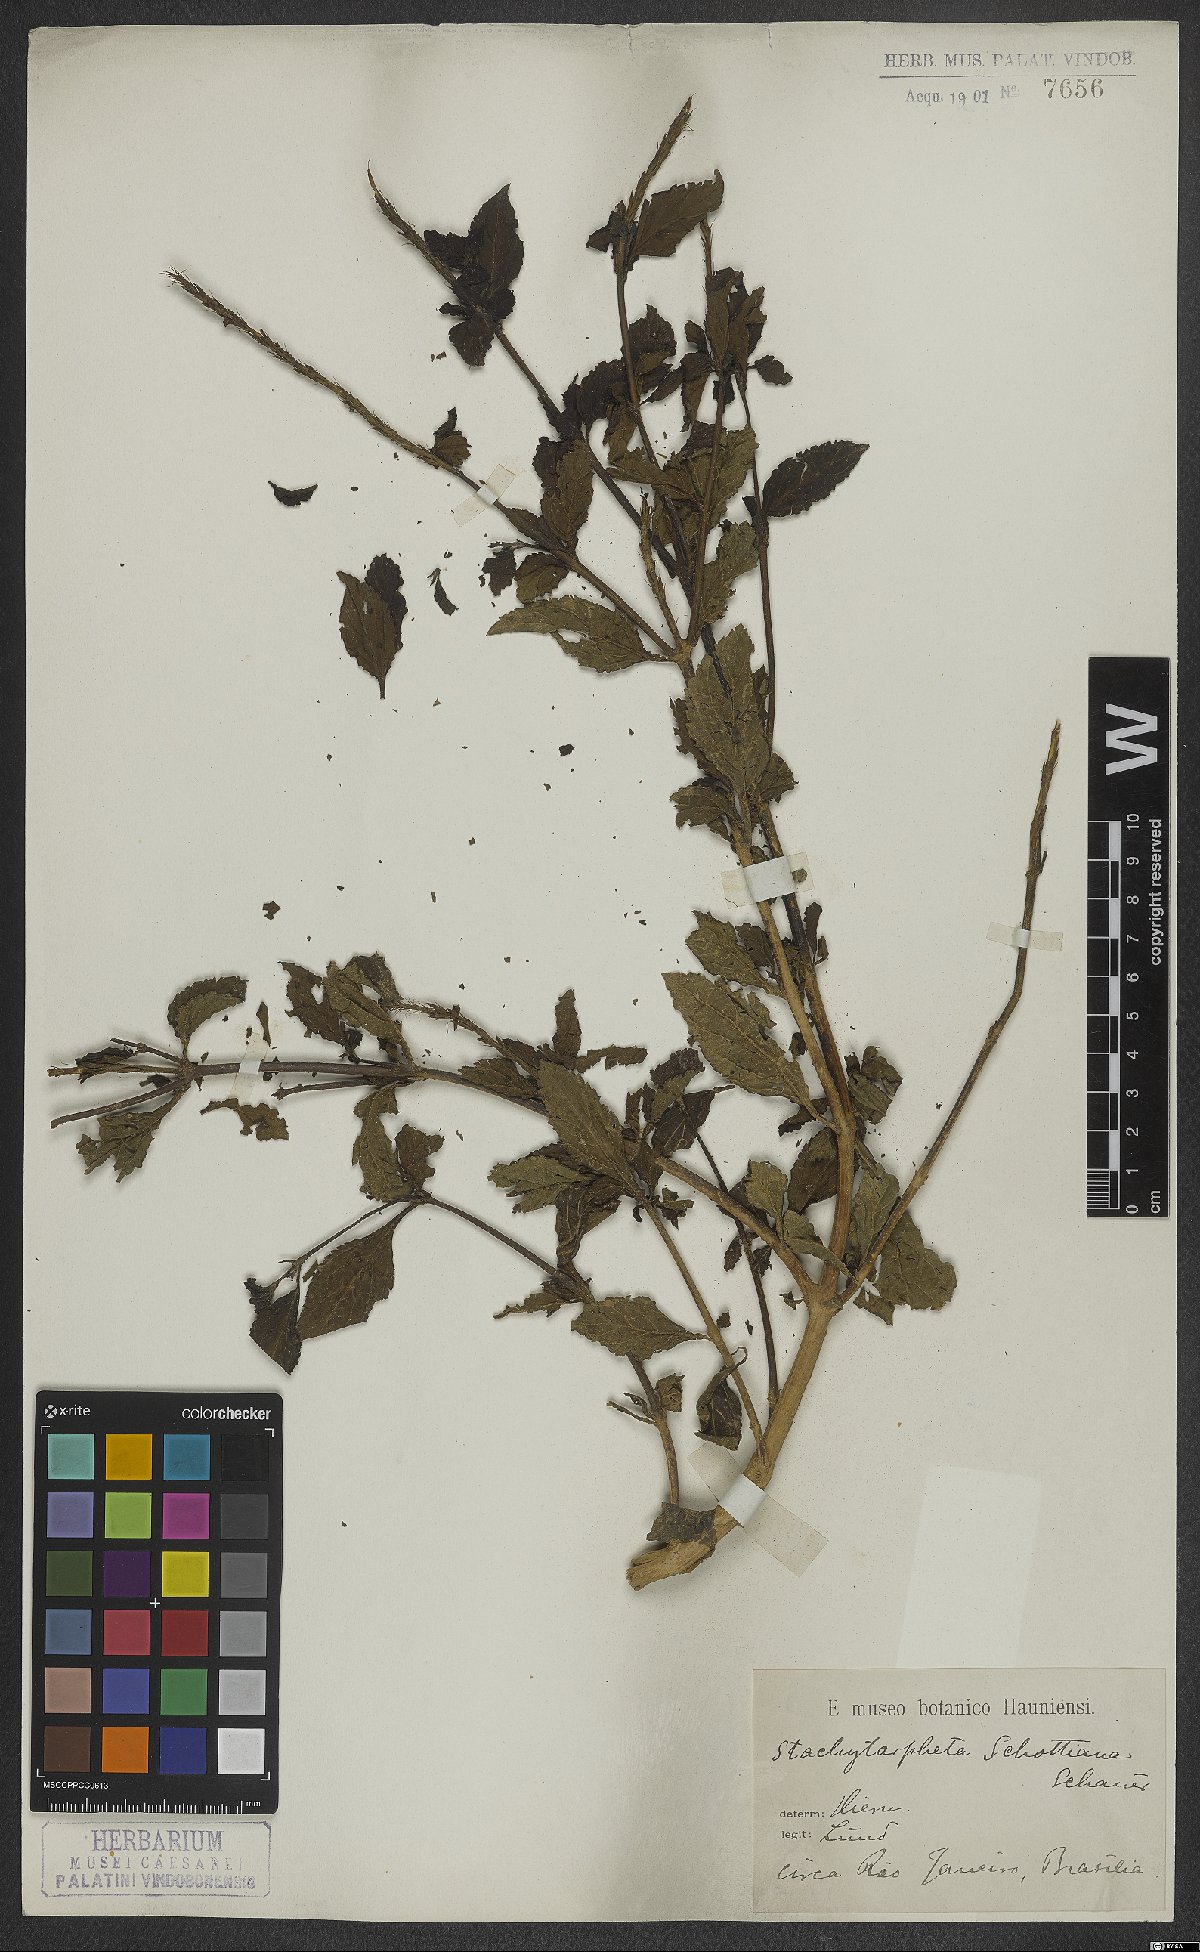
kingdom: Plantae
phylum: Tracheophyta
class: Magnoliopsida
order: Lamiales
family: Verbenaceae
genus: Stachytarpheta
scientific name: Stachytarpheta schottiana
